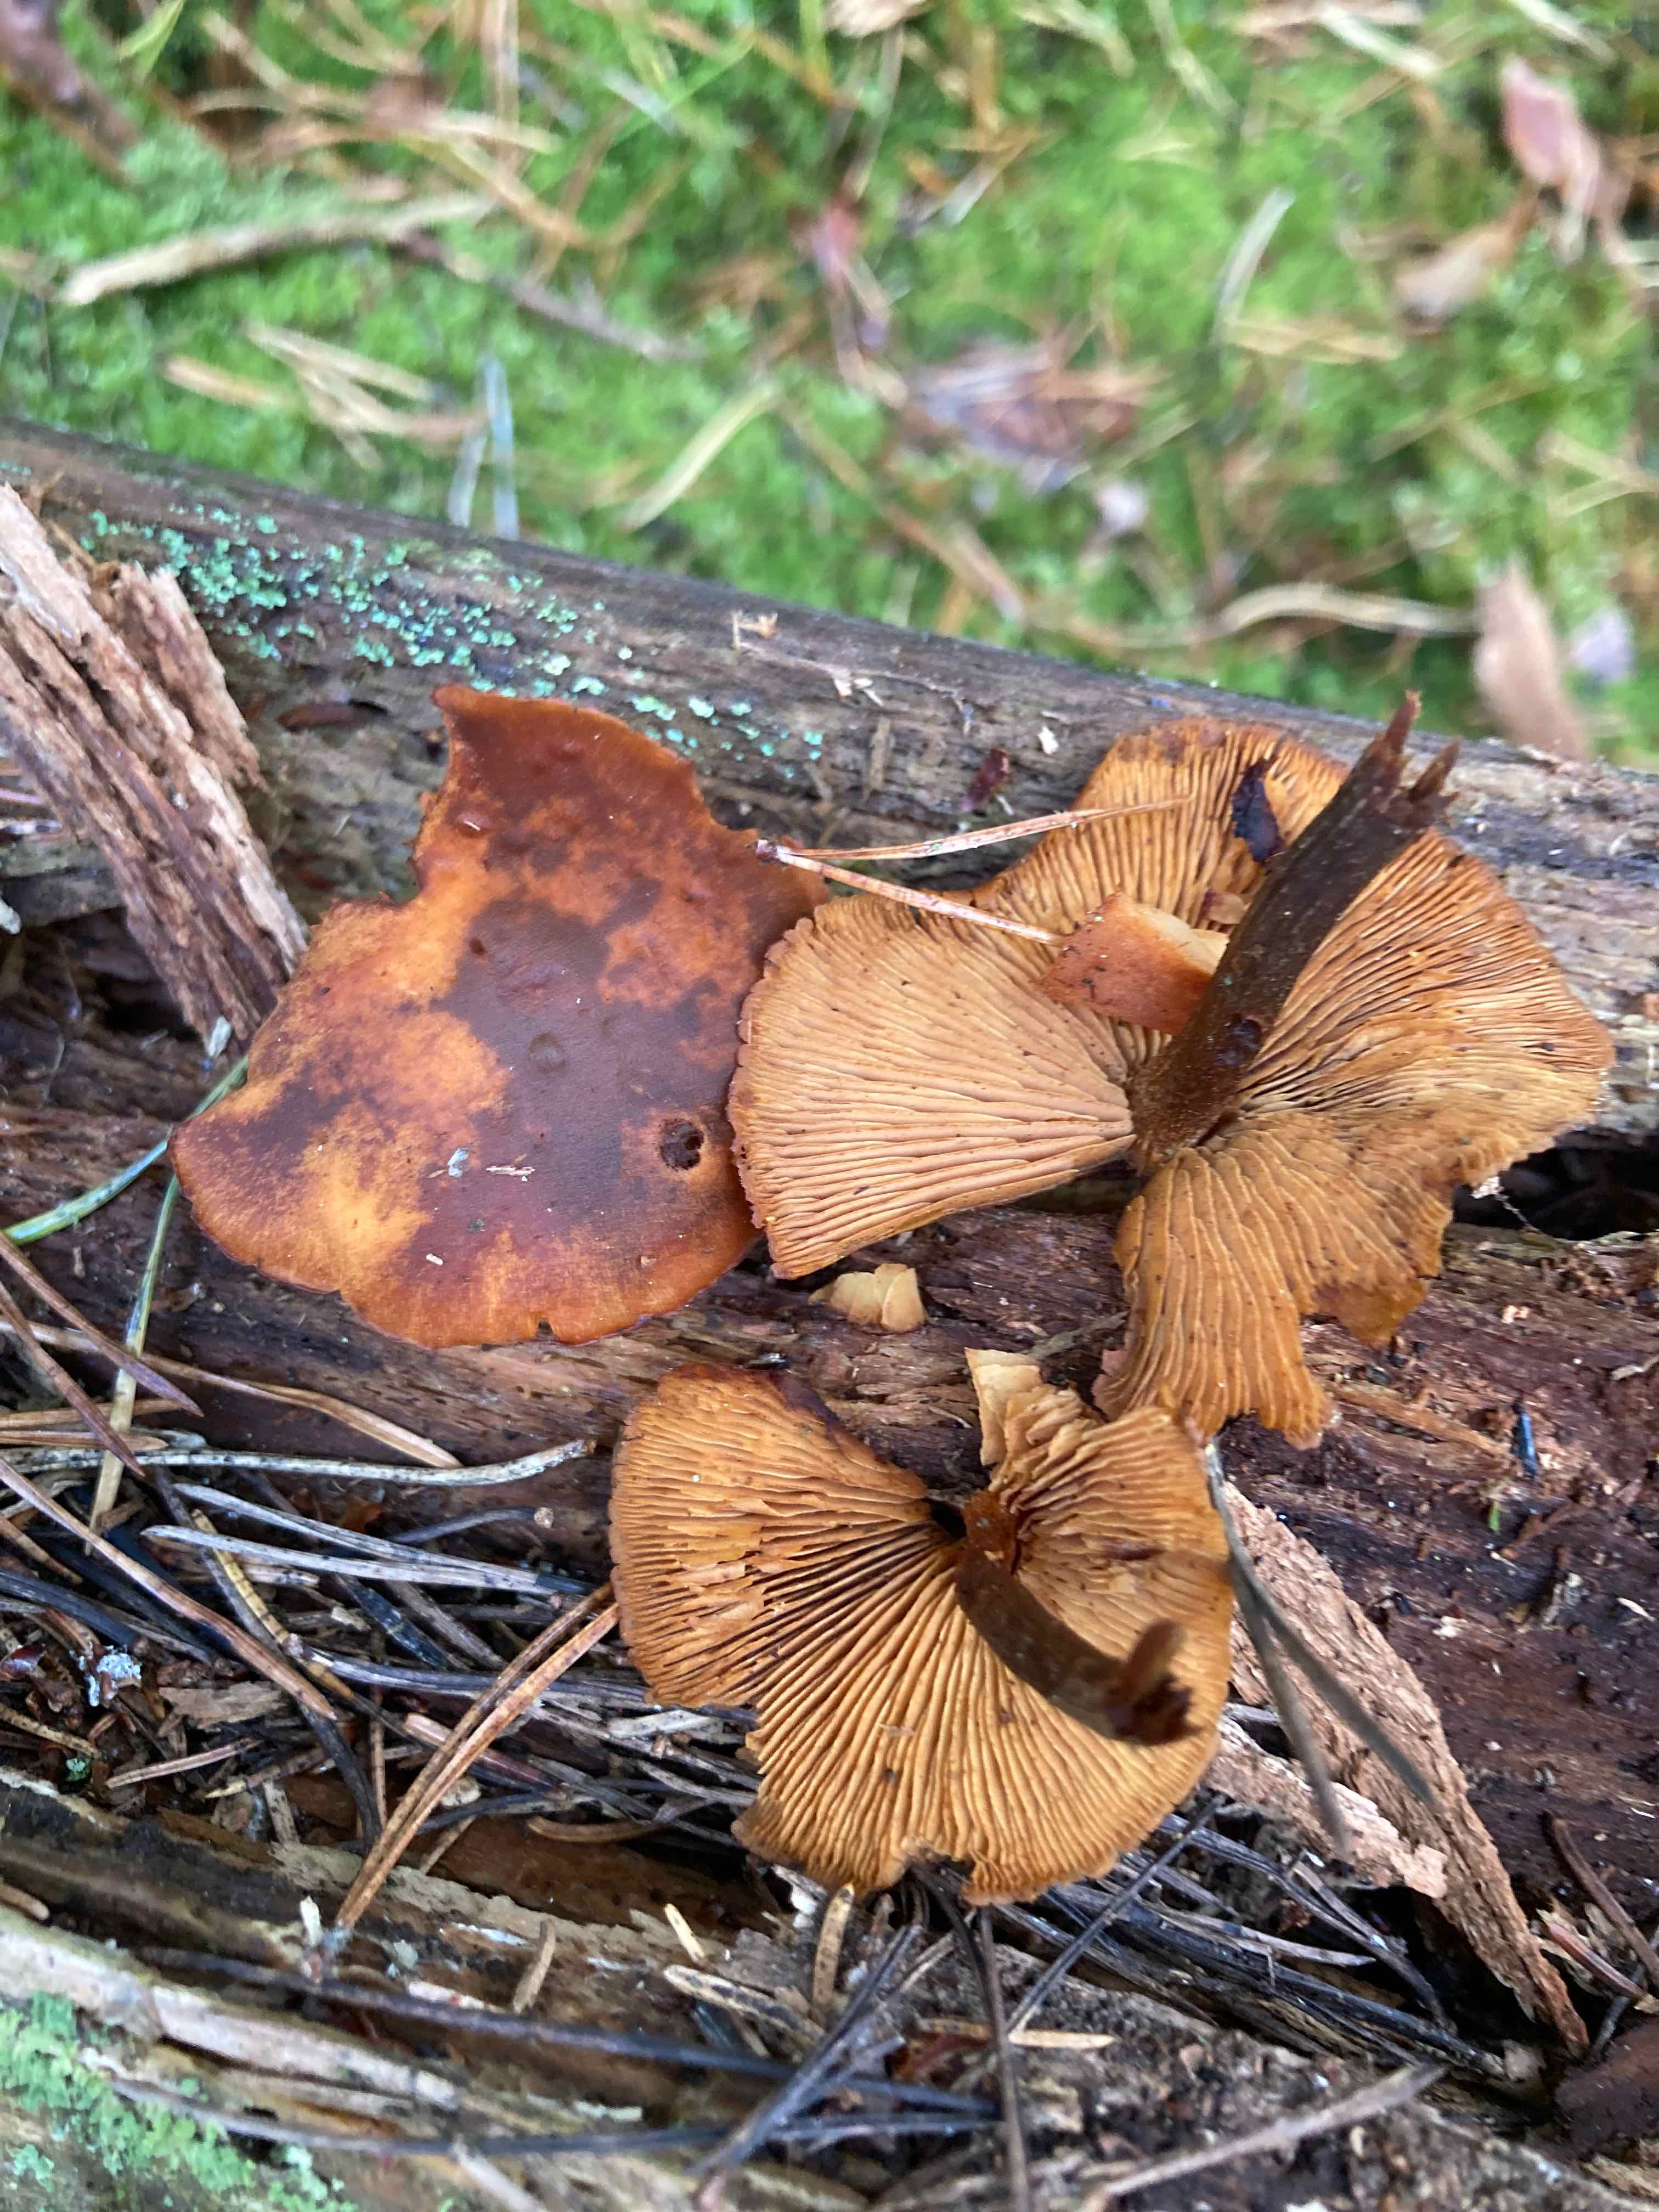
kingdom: Fungi
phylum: Basidiomycota
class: Agaricomycetes
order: Agaricales
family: Hymenogastraceae
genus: Gymnopilus
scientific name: Gymnopilus picreus
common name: puklet flammehat
